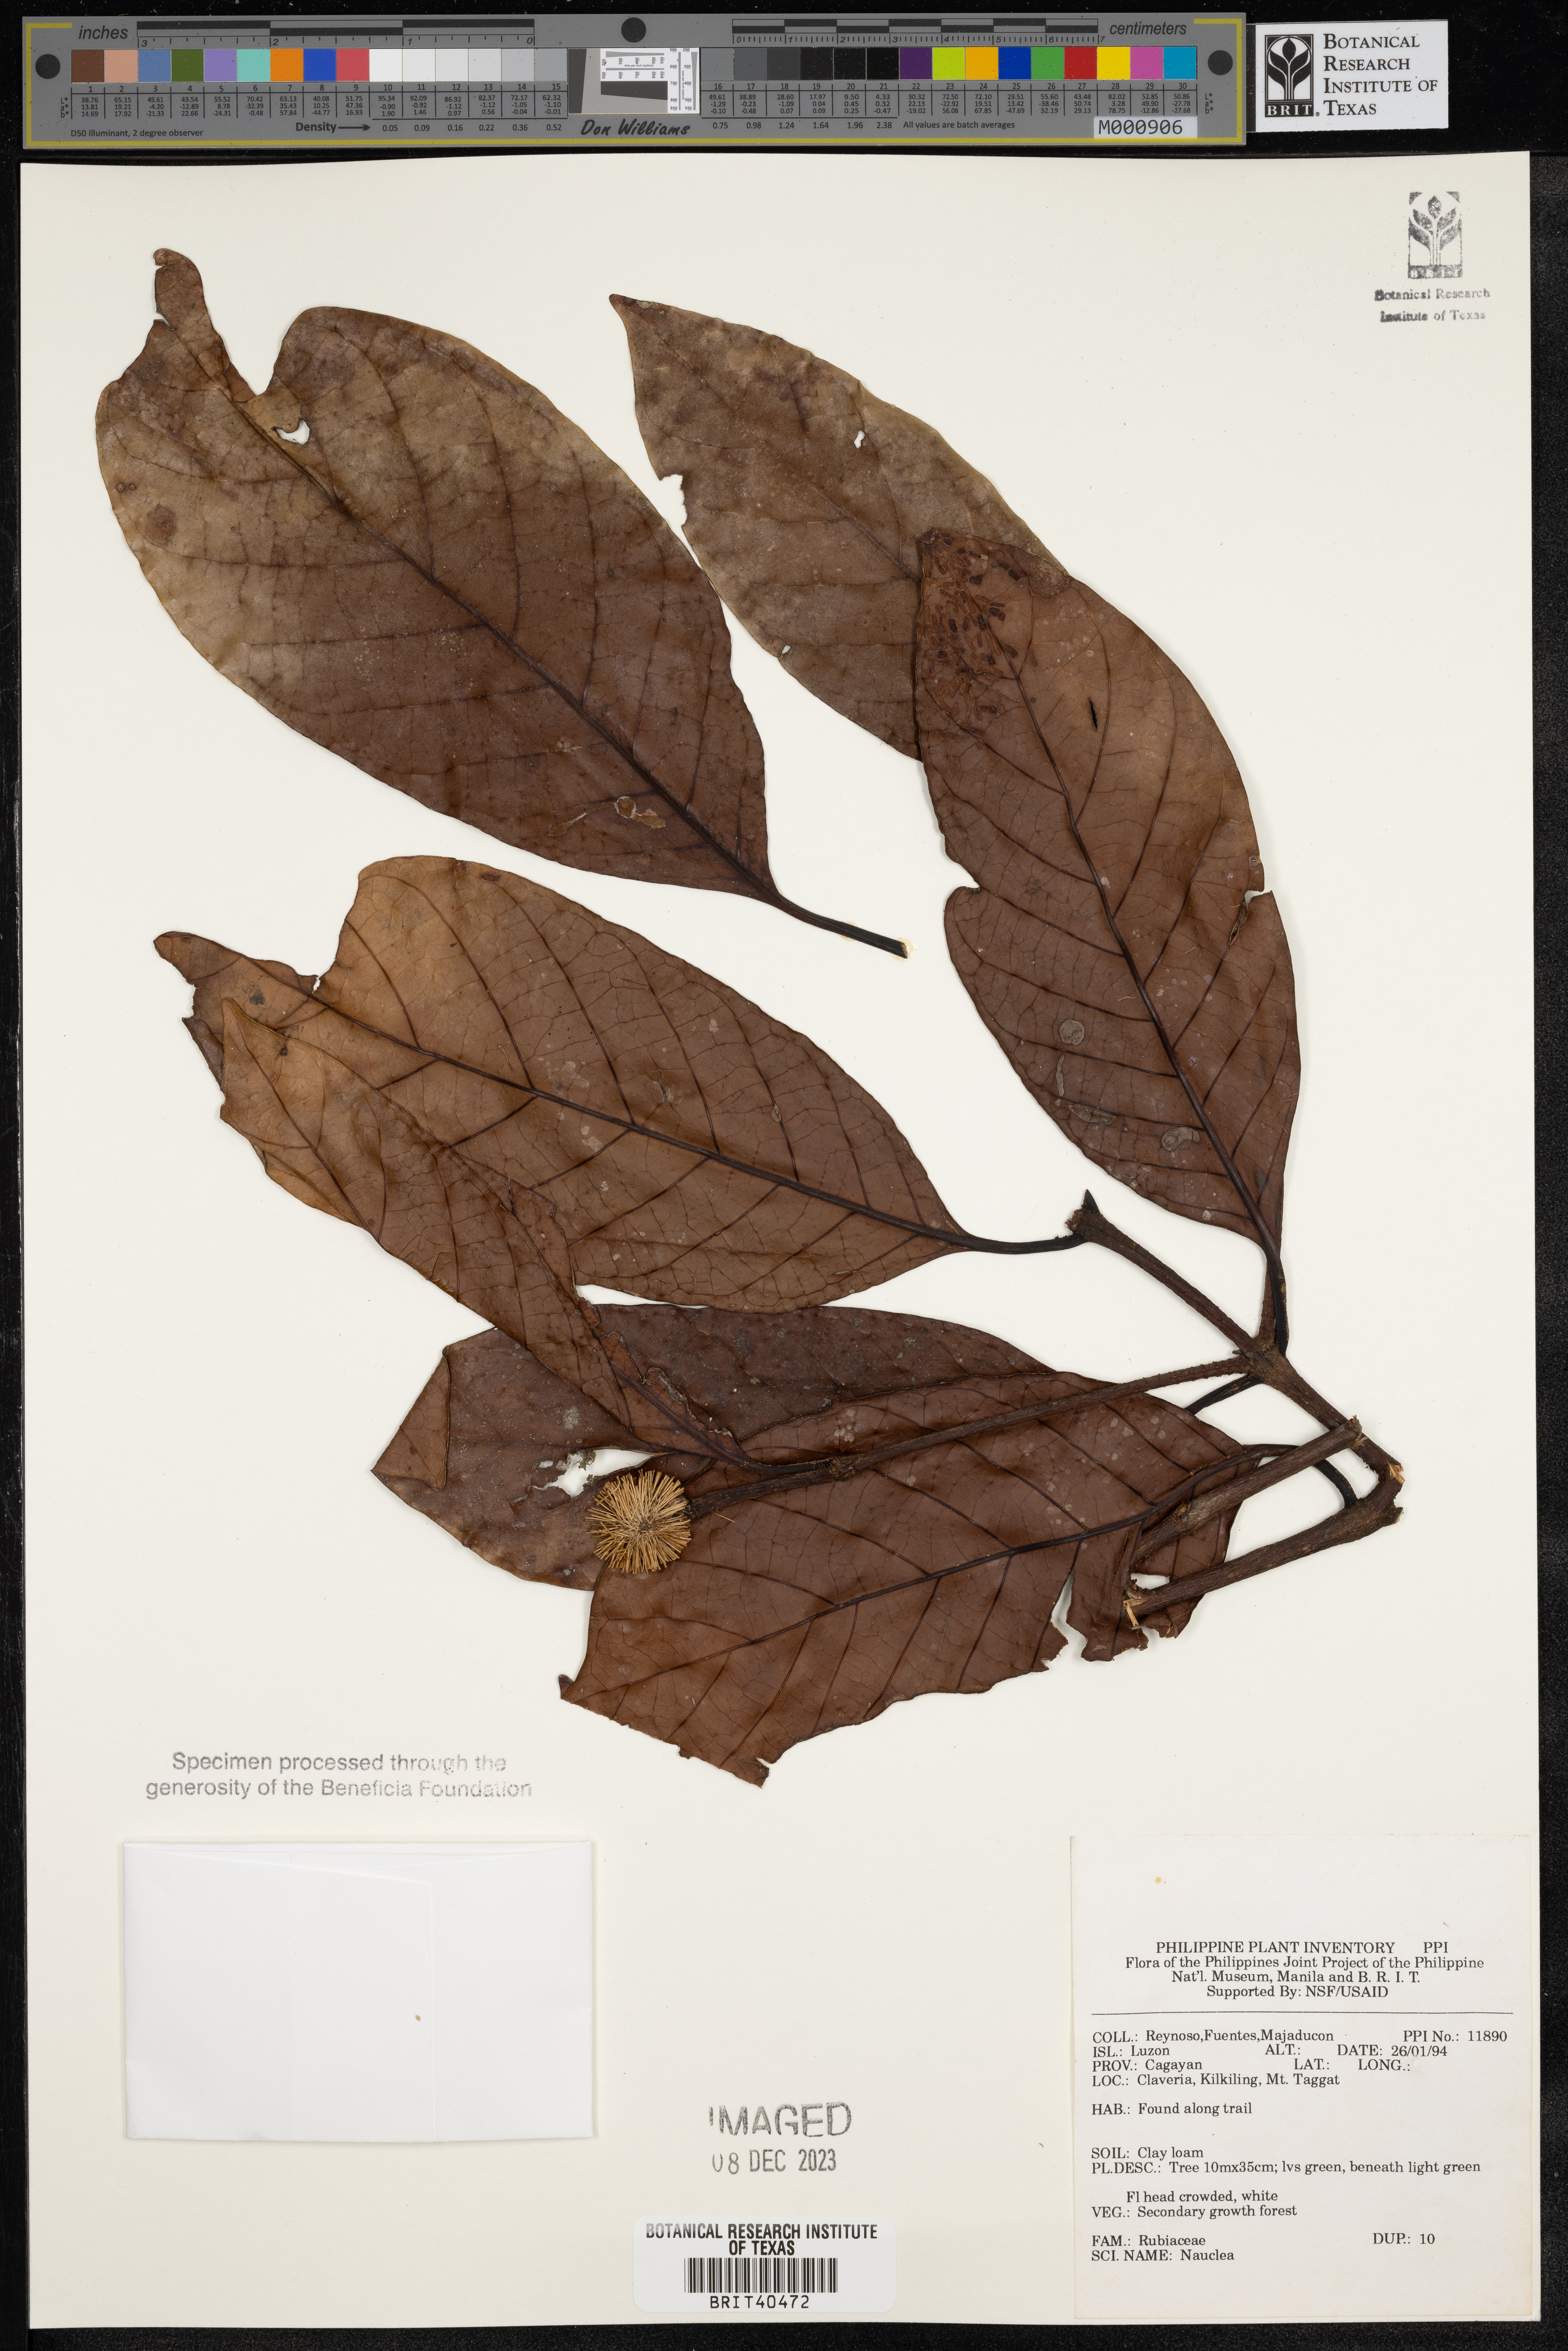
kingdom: Plantae
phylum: Tracheophyta
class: Magnoliopsida
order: Gentianales
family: Rubiaceae
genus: Nauclea
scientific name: Nauclea
